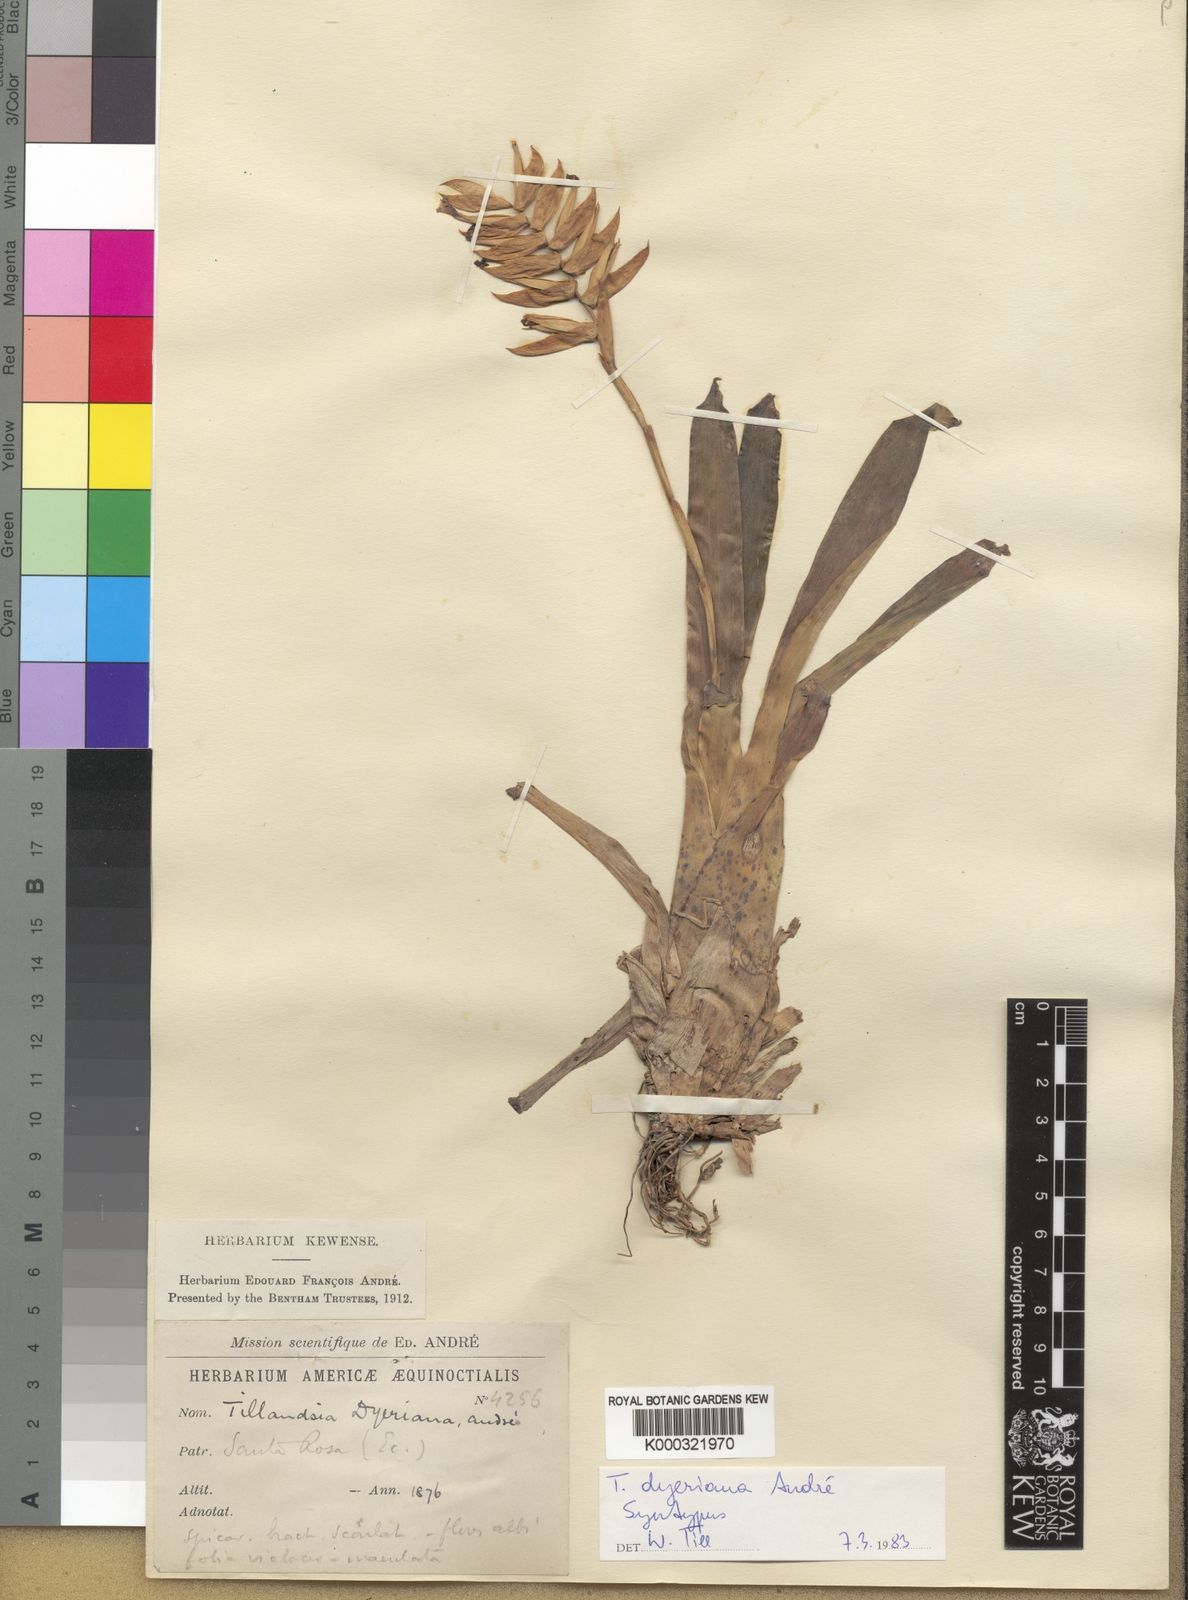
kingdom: Plantae
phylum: Tracheophyta
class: Liliopsida
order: Poales
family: Bromeliaceae
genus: Tillandsia
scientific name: Tillandsia
